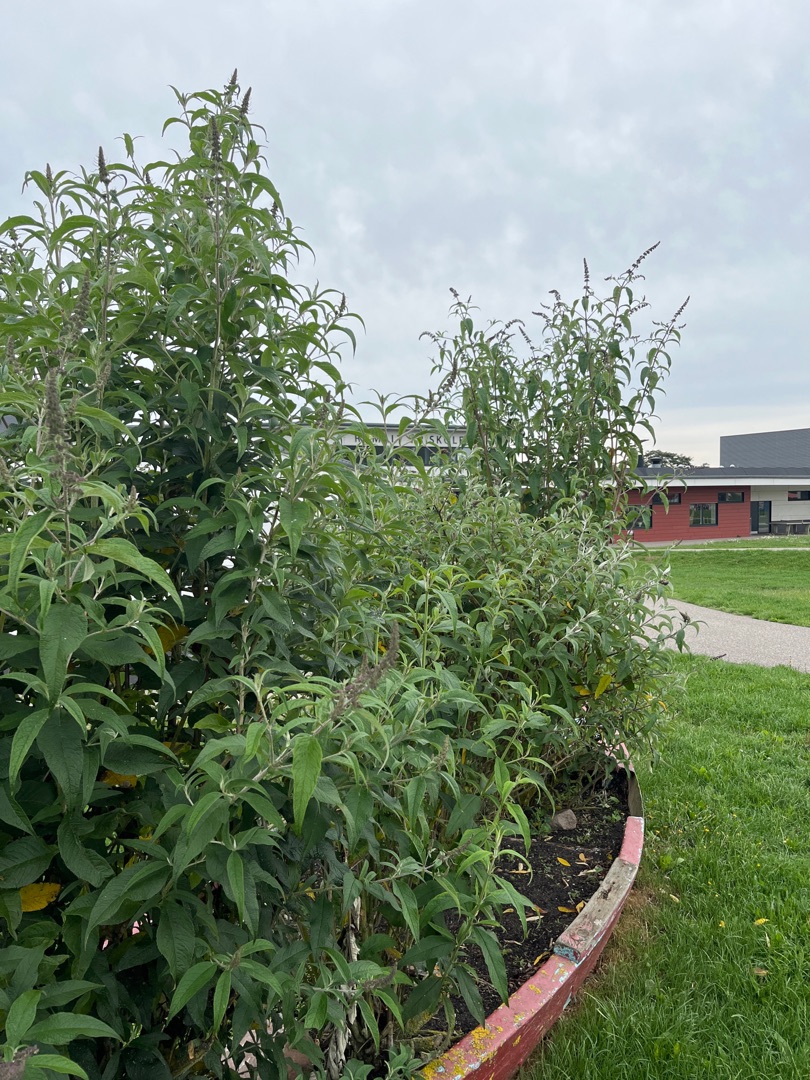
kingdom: Plantae
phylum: Tracheophyta
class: Magnoliopsida
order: Lamiales
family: Scrophulariaceae
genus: Buddleja
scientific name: Buddleja davidii
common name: Sommerfuglebusk
